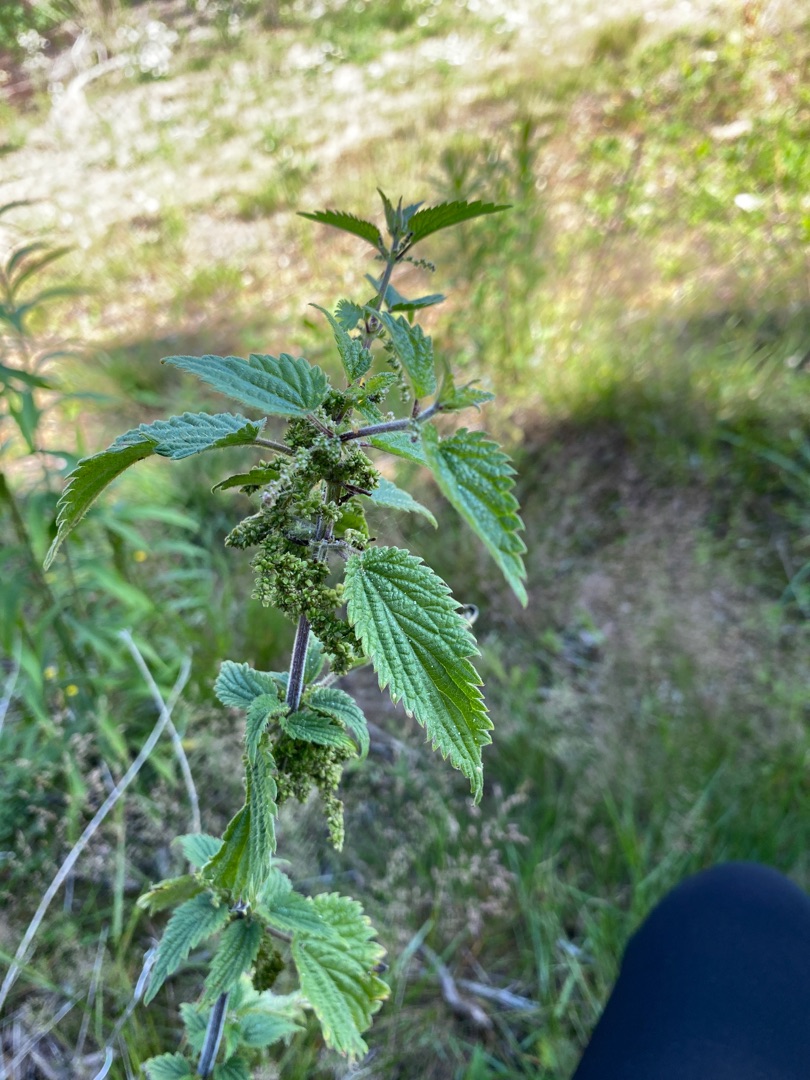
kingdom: Plantae
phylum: Tracheophyta
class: Magnoliopsida
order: Rosales
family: Urticaceae
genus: Urtica
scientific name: Urtica dioica
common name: Stor nælde
